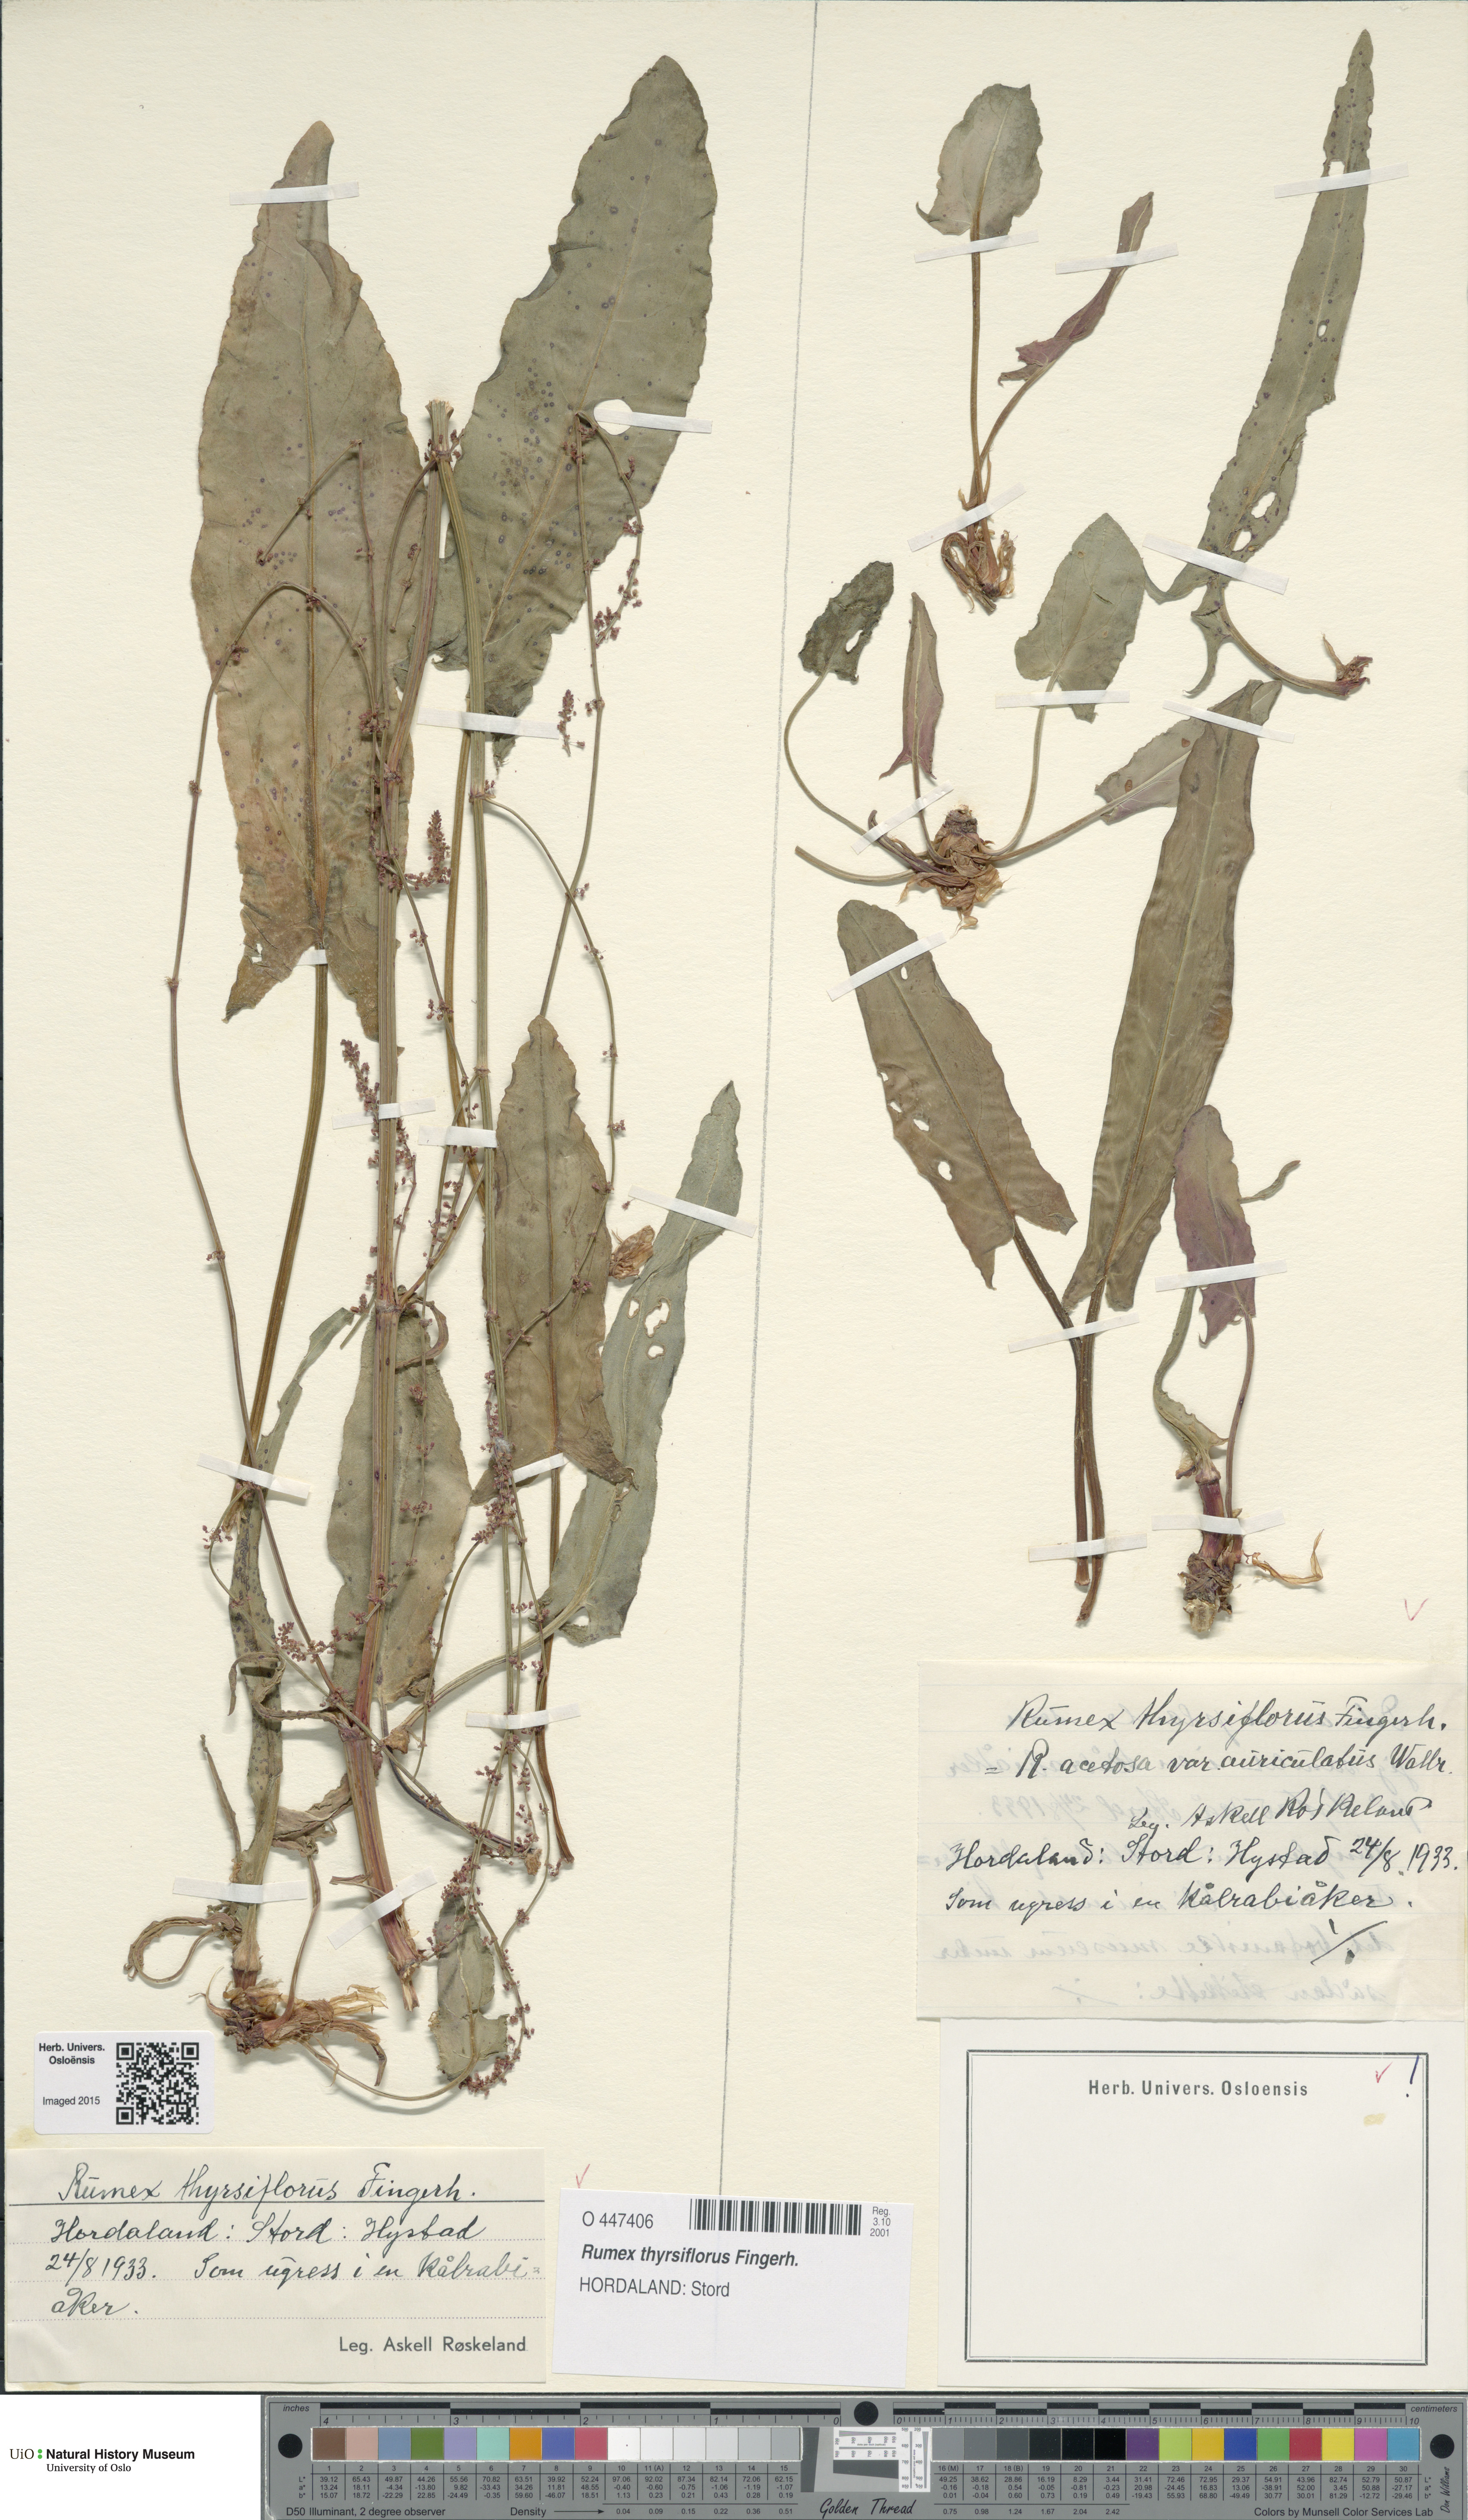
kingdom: Plantae
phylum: Tracheophyta
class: Magnoliopsida
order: Caryophyllales
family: Polygonaceae
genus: Rumex
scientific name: Rumex thyrsiflorus
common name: Garden sorrel
